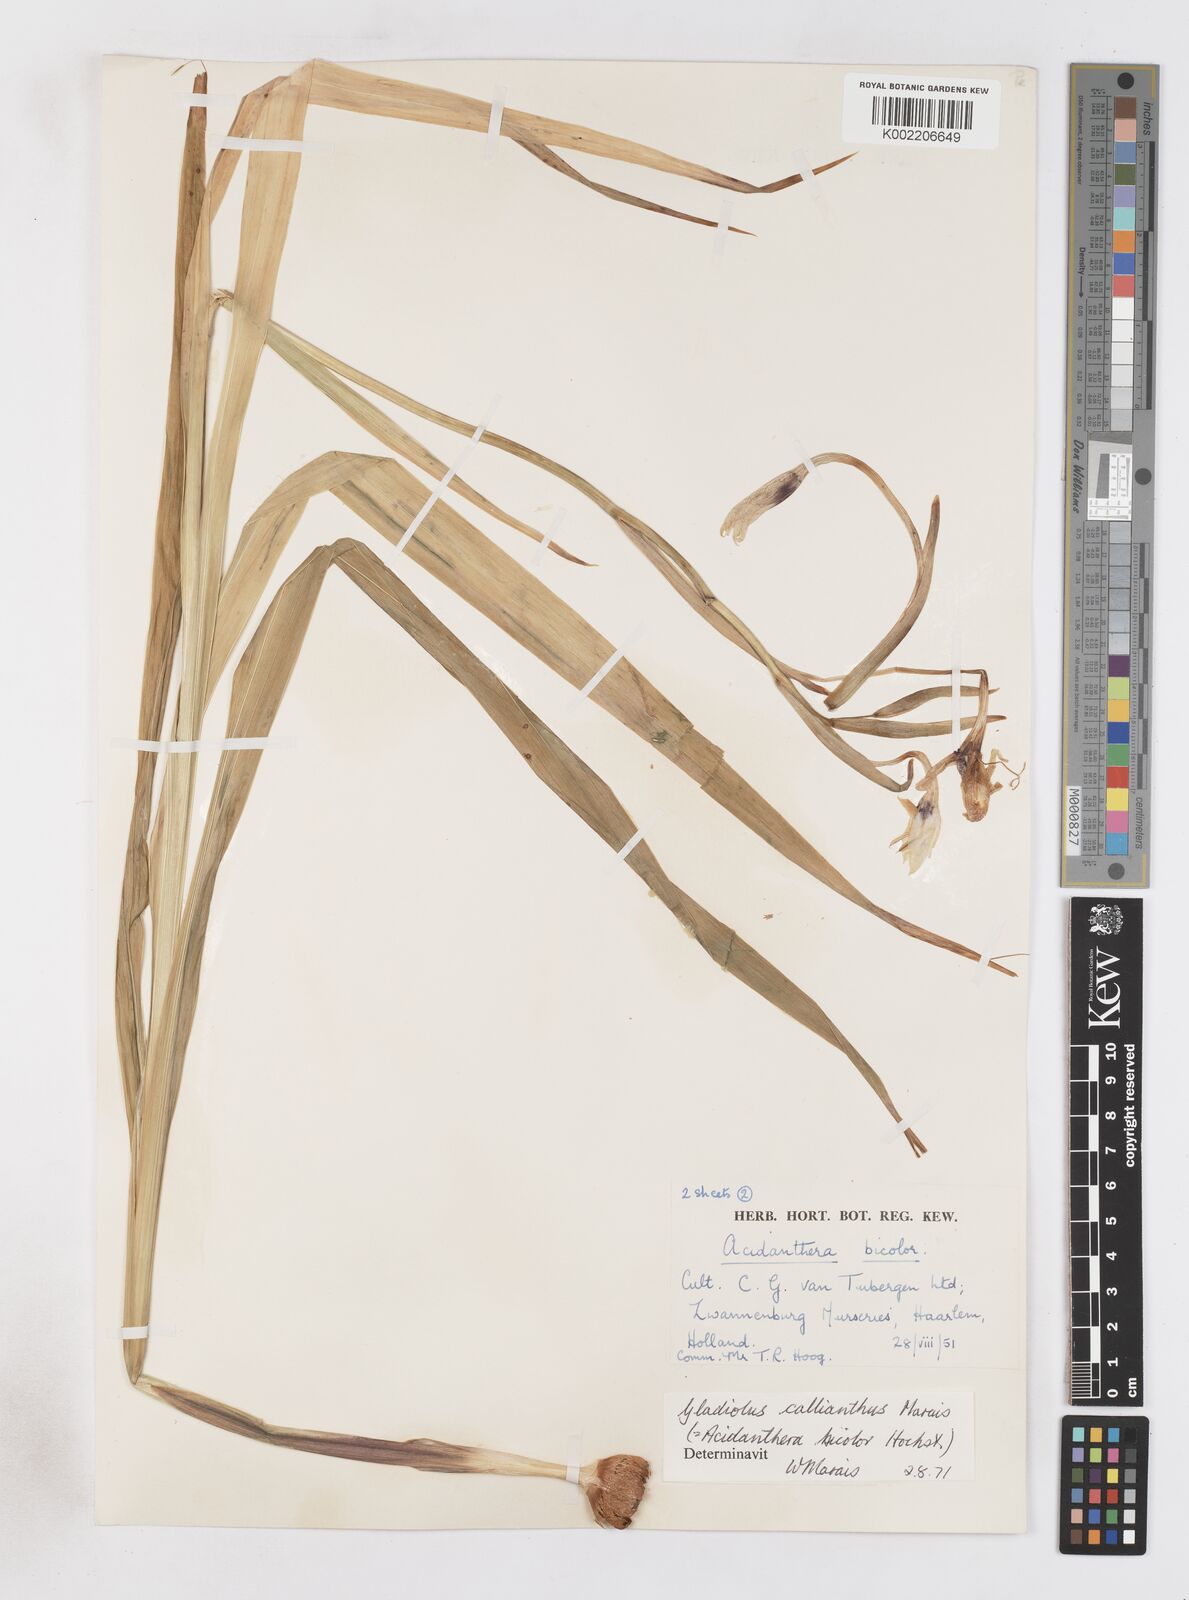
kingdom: Plantae
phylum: Tracheophyta
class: Liliopsida
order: Asparagales
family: Iridaceae
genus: Gladiolus
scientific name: Gladiolus murielae
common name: Acidanthera
